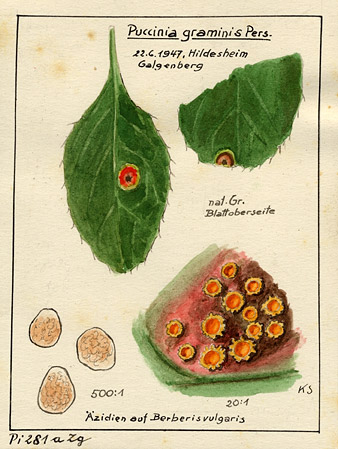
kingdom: Plantae
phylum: Tracheophyta
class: Magnoliopsida
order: Ranunculales
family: Berberidaceae
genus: Berberis
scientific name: Berberis vulgaris
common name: Barberry
